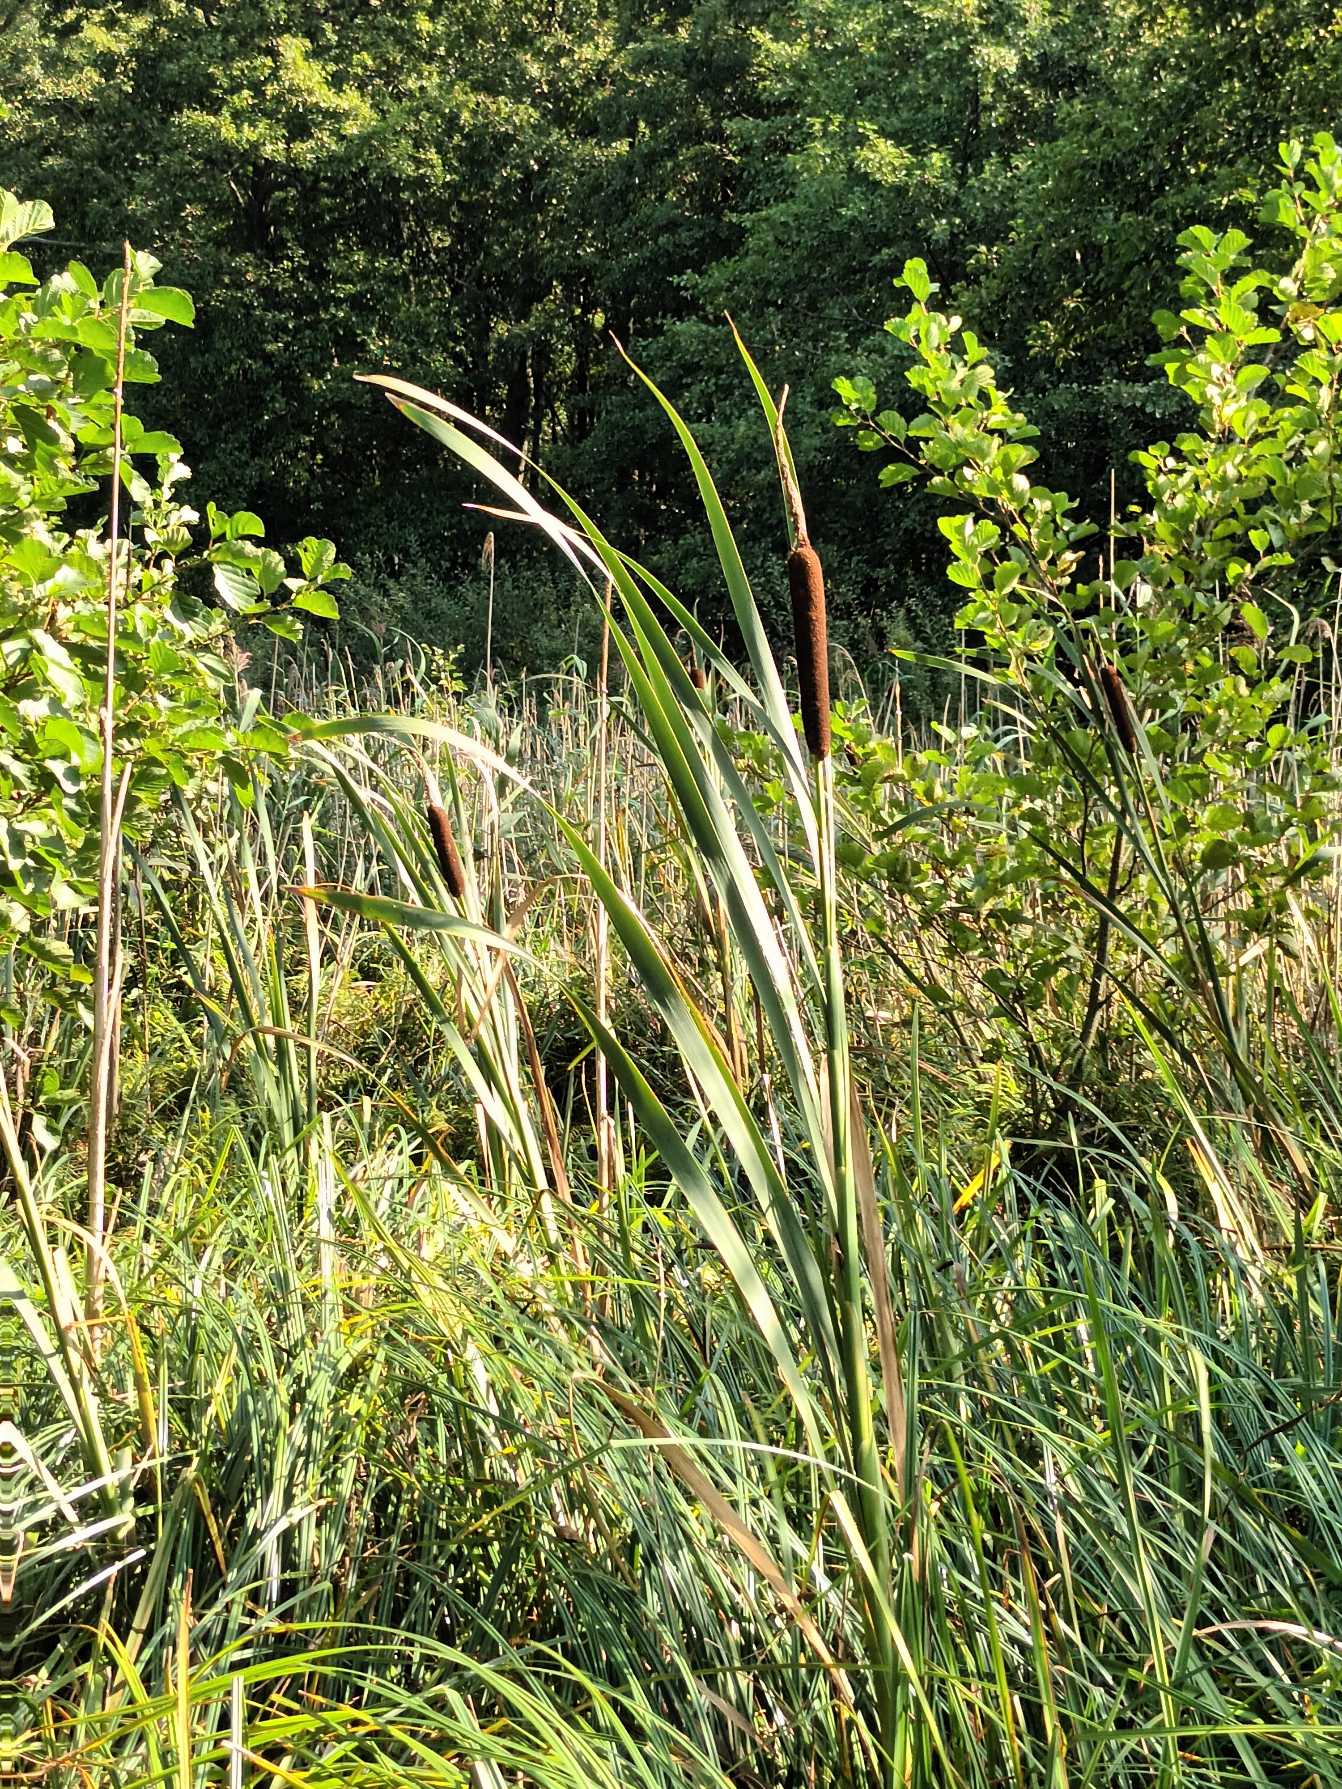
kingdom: Plantae
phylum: Tracheophyta
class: Liliopsida
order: Poales
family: Typhaceae
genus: Typha
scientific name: Typha latifolia
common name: Bredbladet dunhammer
